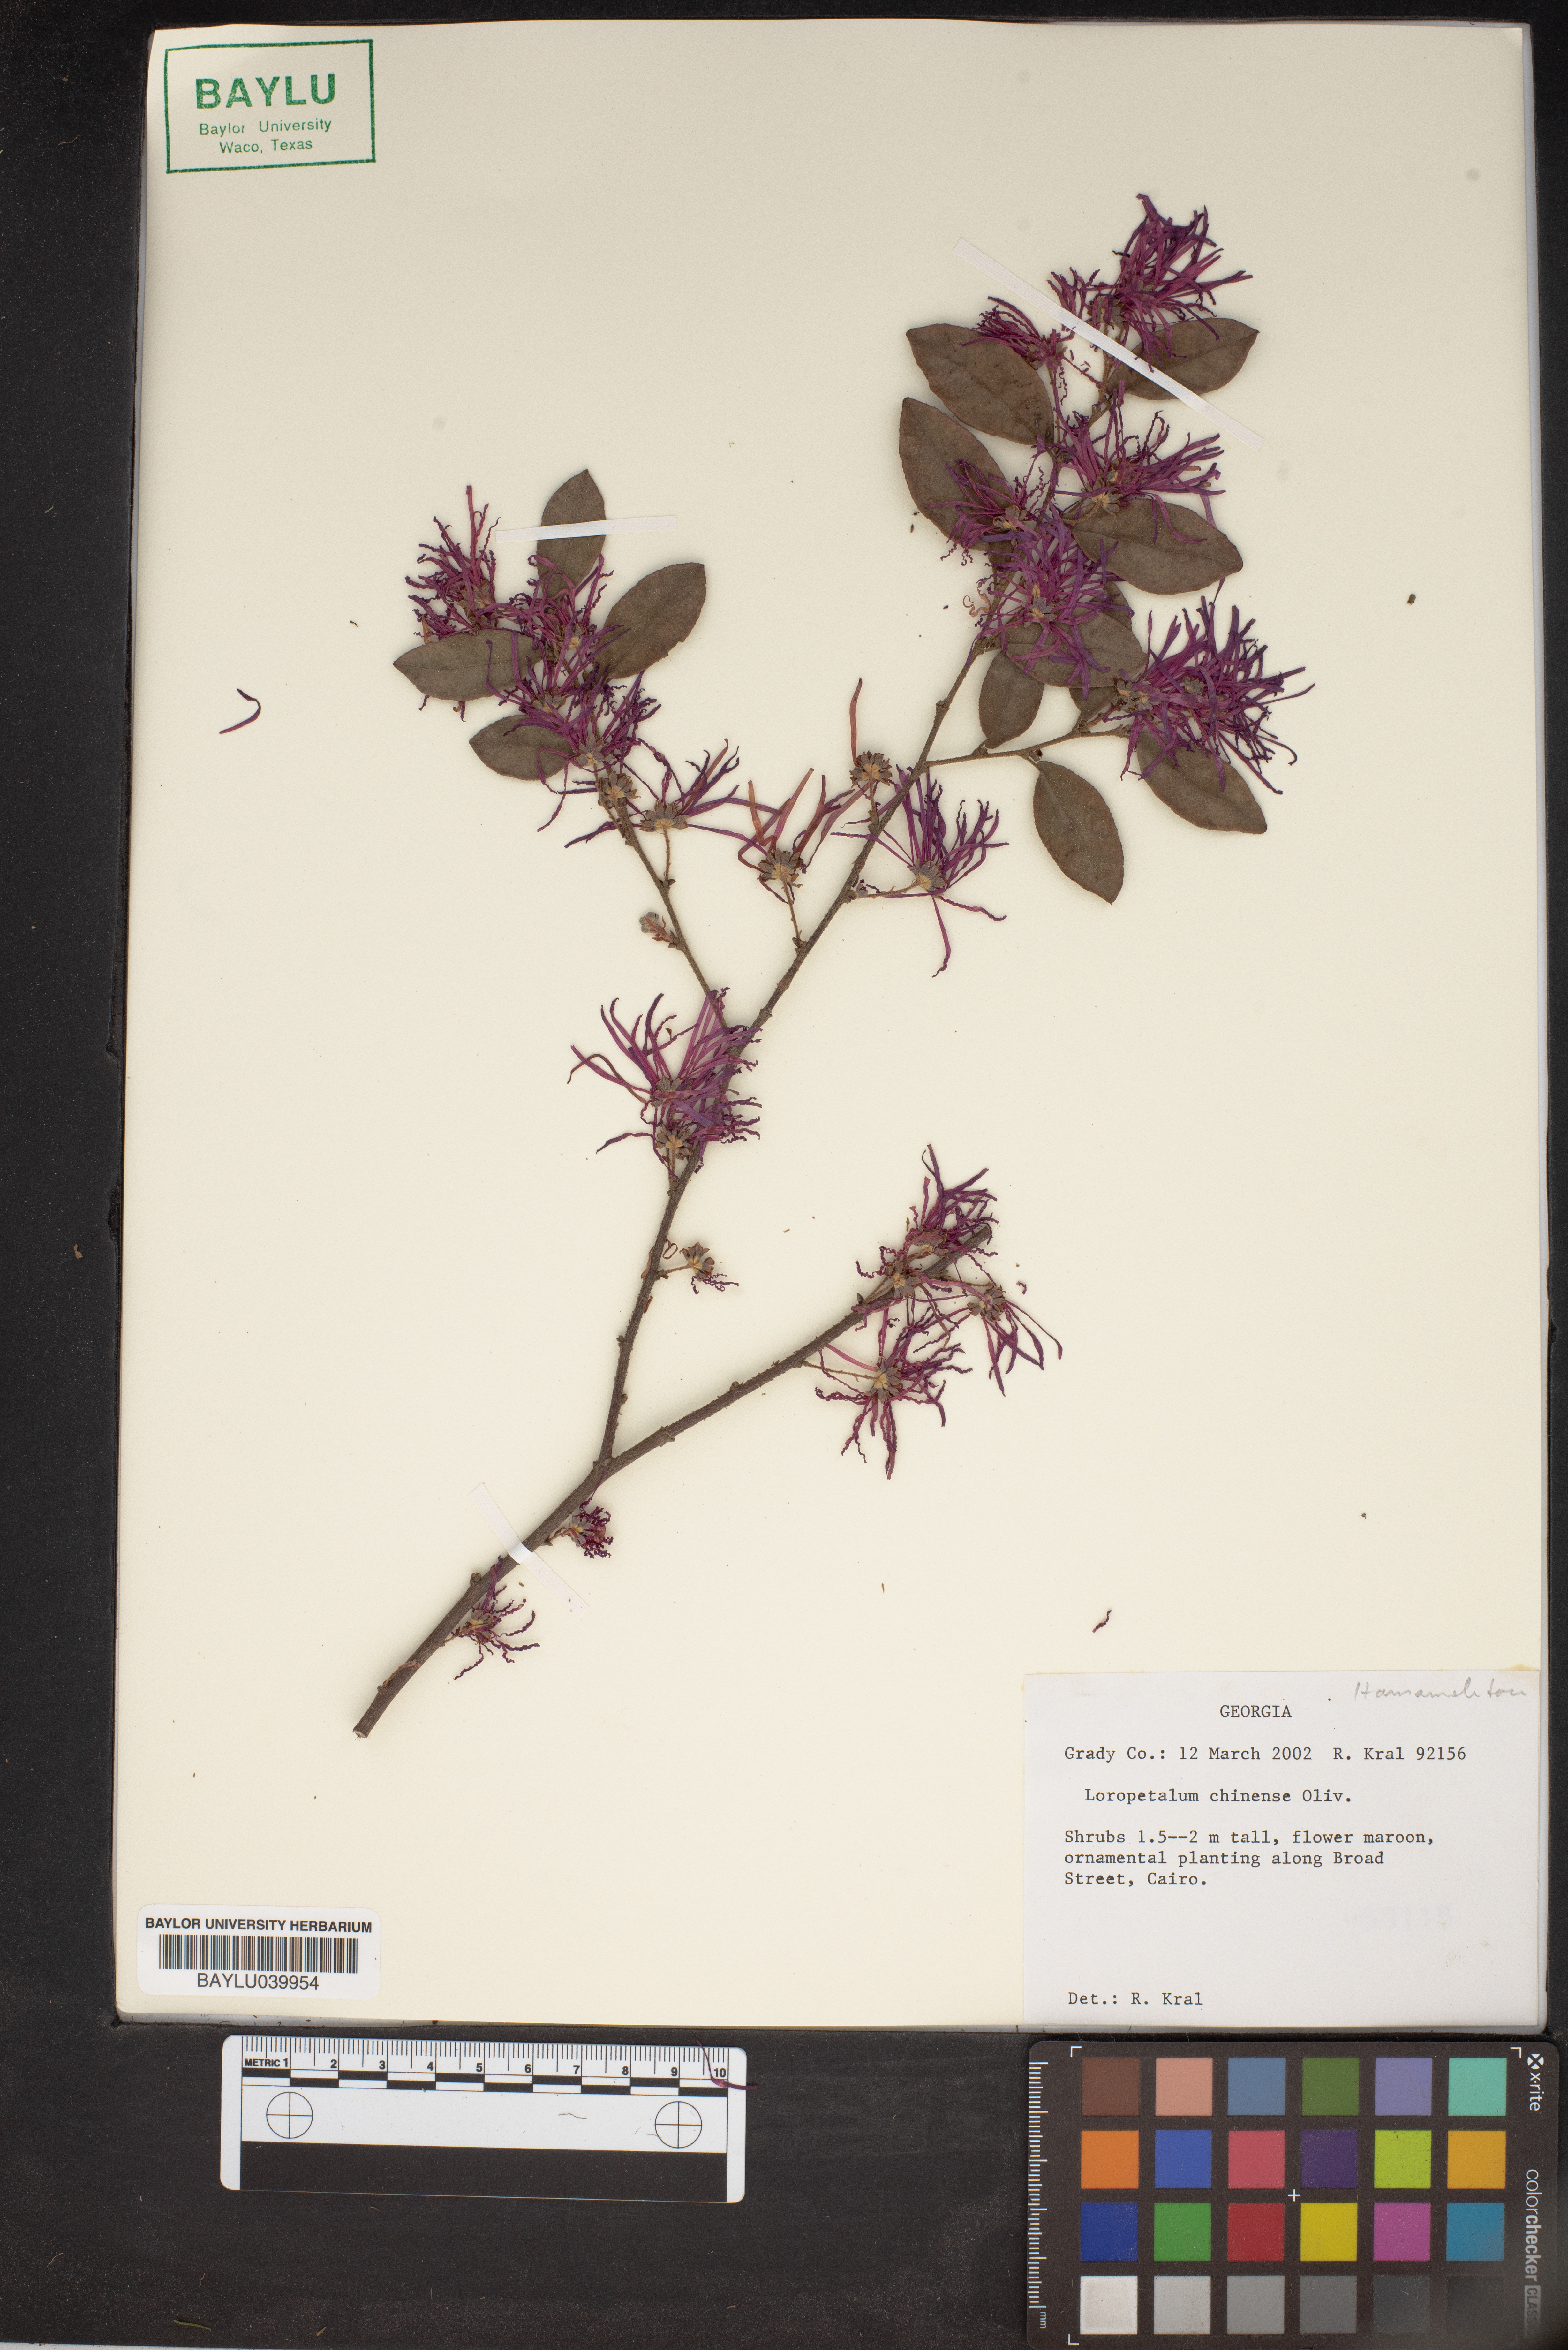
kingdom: Plantae
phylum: Tracheophyta
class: Magnoliopsida
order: Saxifragales
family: Hamamelidaceae
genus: Loropetalum
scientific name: Loropetalum chinense
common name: Chinese fringe flower
